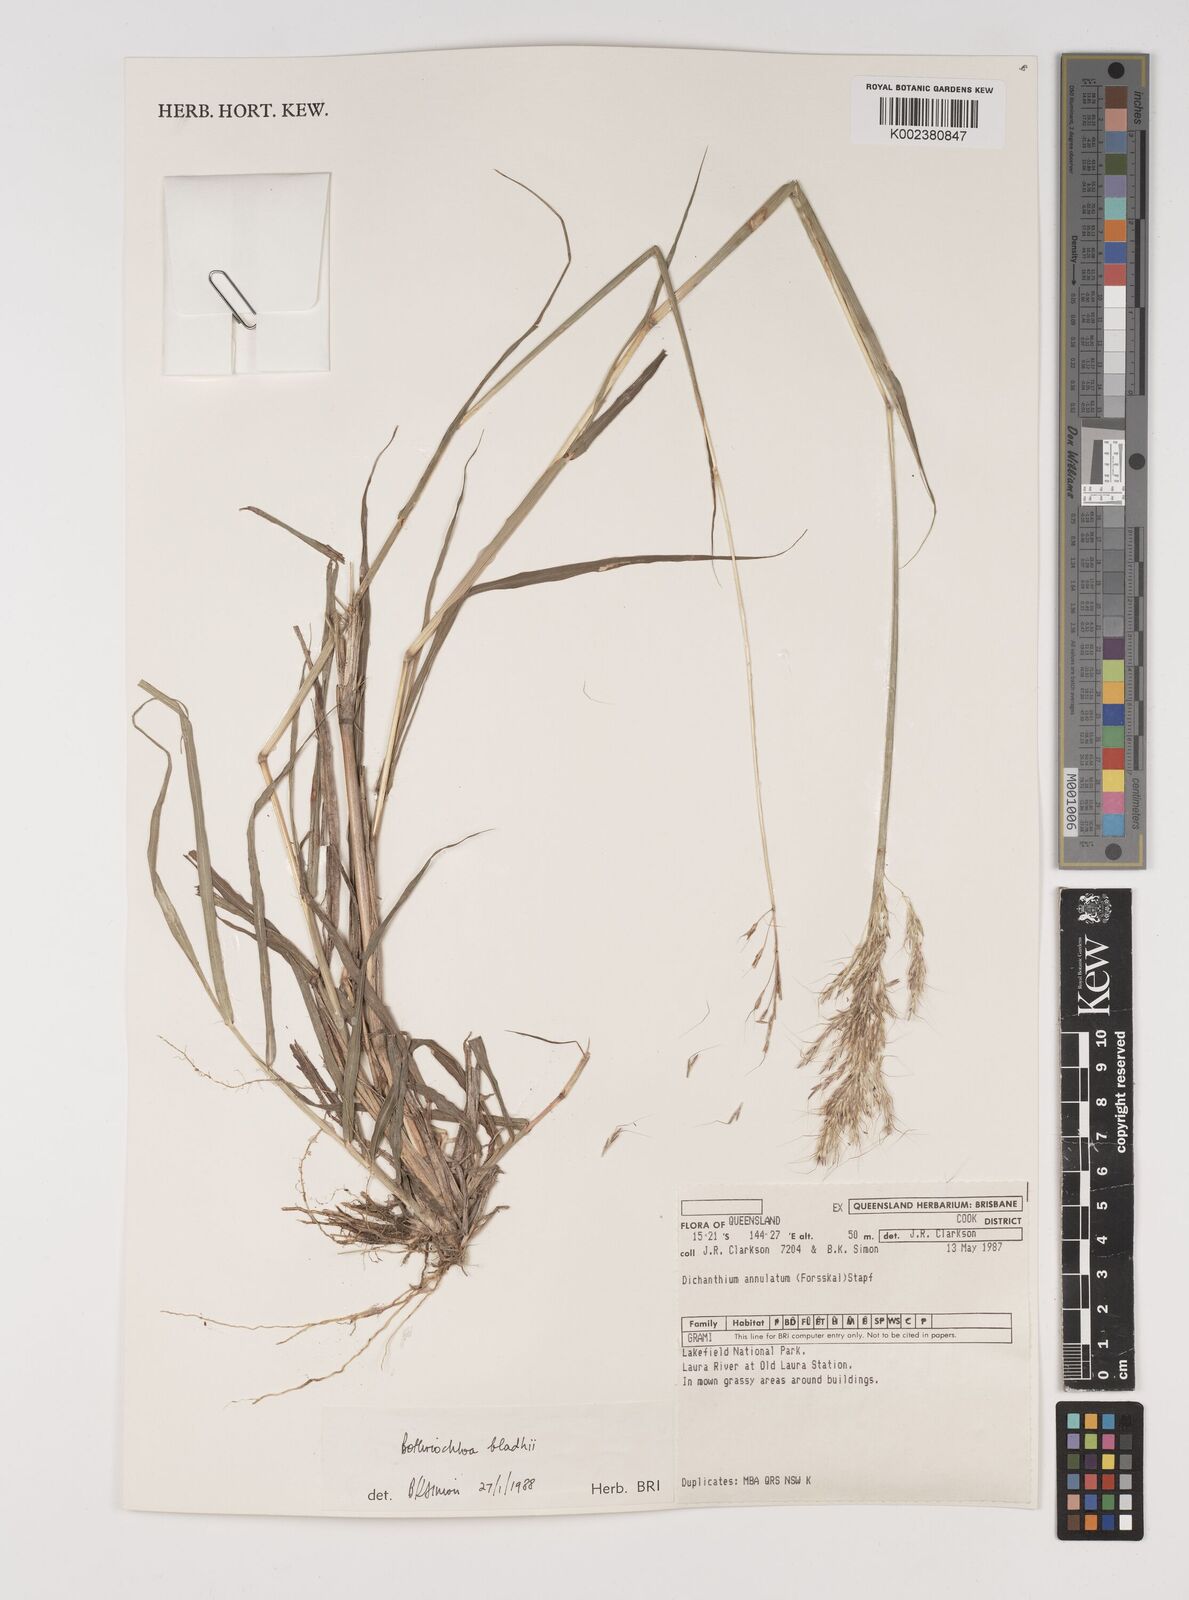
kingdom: Plantae
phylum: Tracheophyta
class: Liliopsida
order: Poales
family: Poaceae
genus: Bothriochloa
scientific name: Bothriochloa bladhii
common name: Caucasian bluestem
